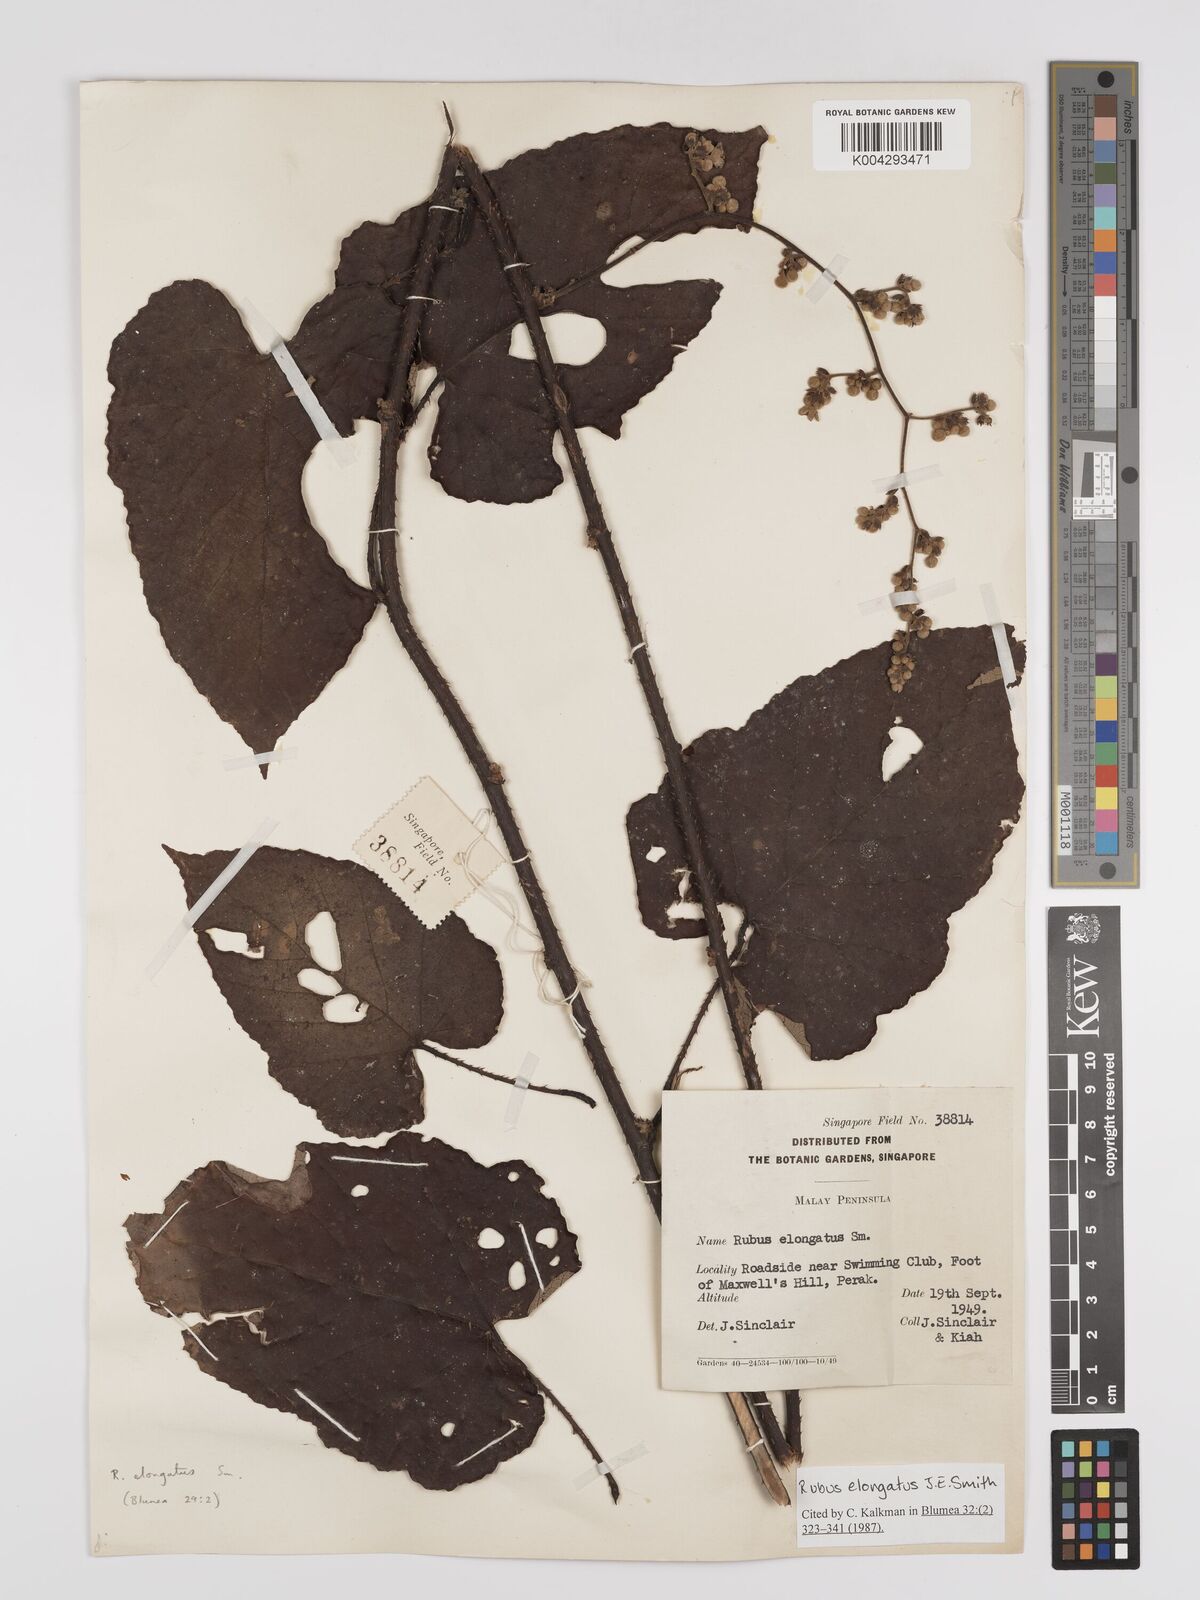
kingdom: Plantae
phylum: Tracheophyta
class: Magnoliopsida
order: Rosales
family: Rosaceae
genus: Rubus
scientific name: Rubus
